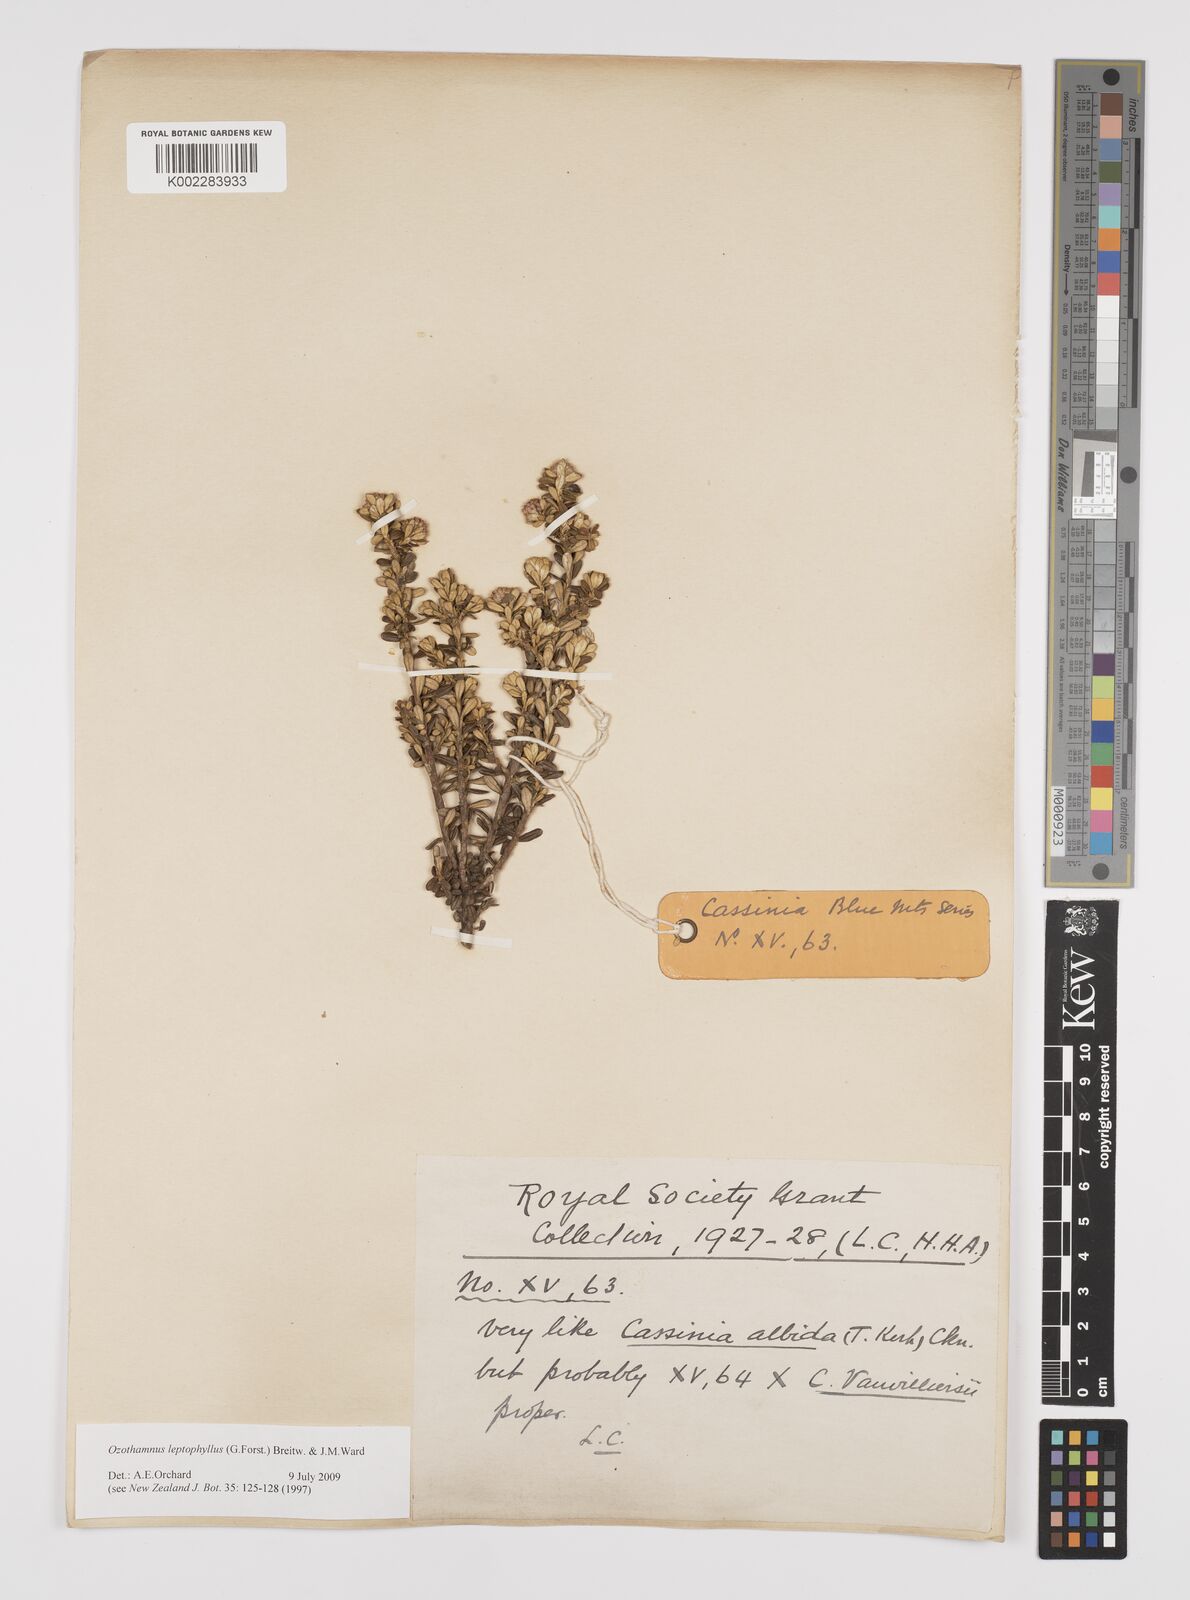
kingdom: Plantae
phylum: Tracheophyta
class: Magnoliopsida
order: Asterales
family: Asteraceae
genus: Ozothamnus
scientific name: Ozothamnus leptophyllus
